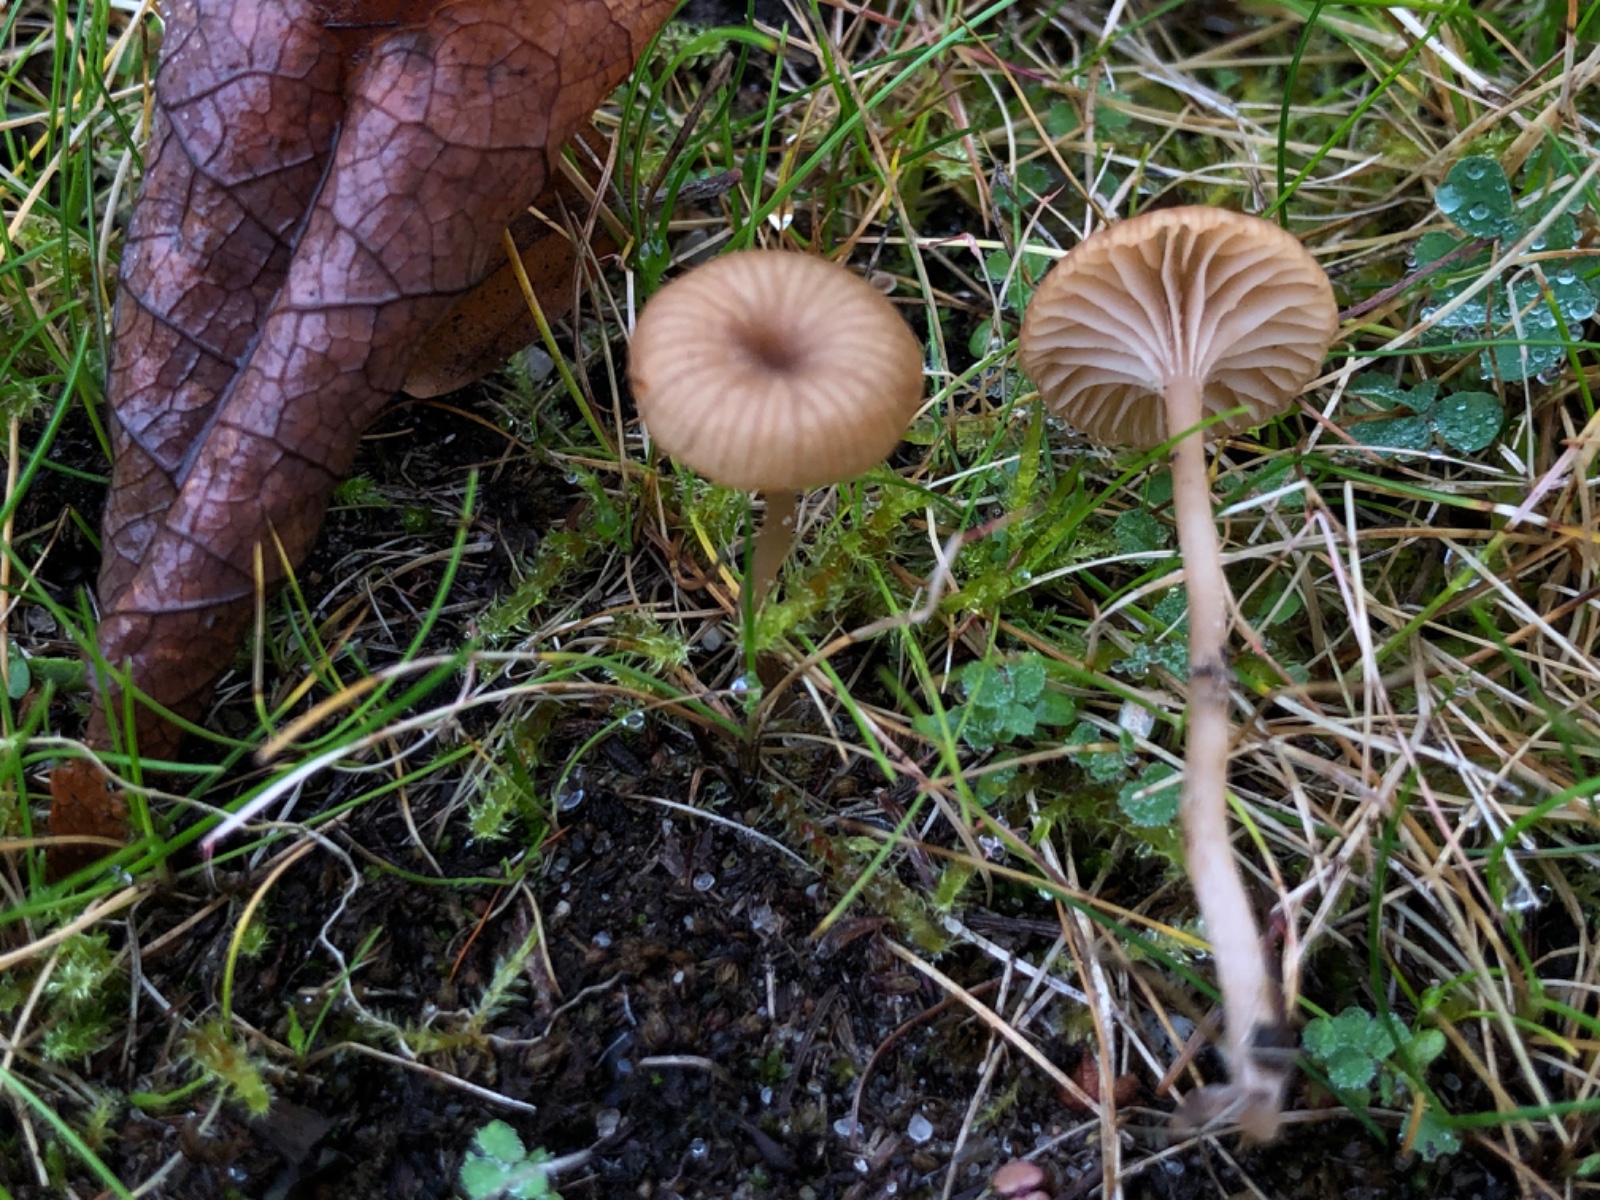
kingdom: Fungi
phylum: Basidiomycota
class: Agaricomycetes
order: Agaricales
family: Tricholomataceae
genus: Omphalina
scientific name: Omphalina pyxidata
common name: rødbrun navlehat
